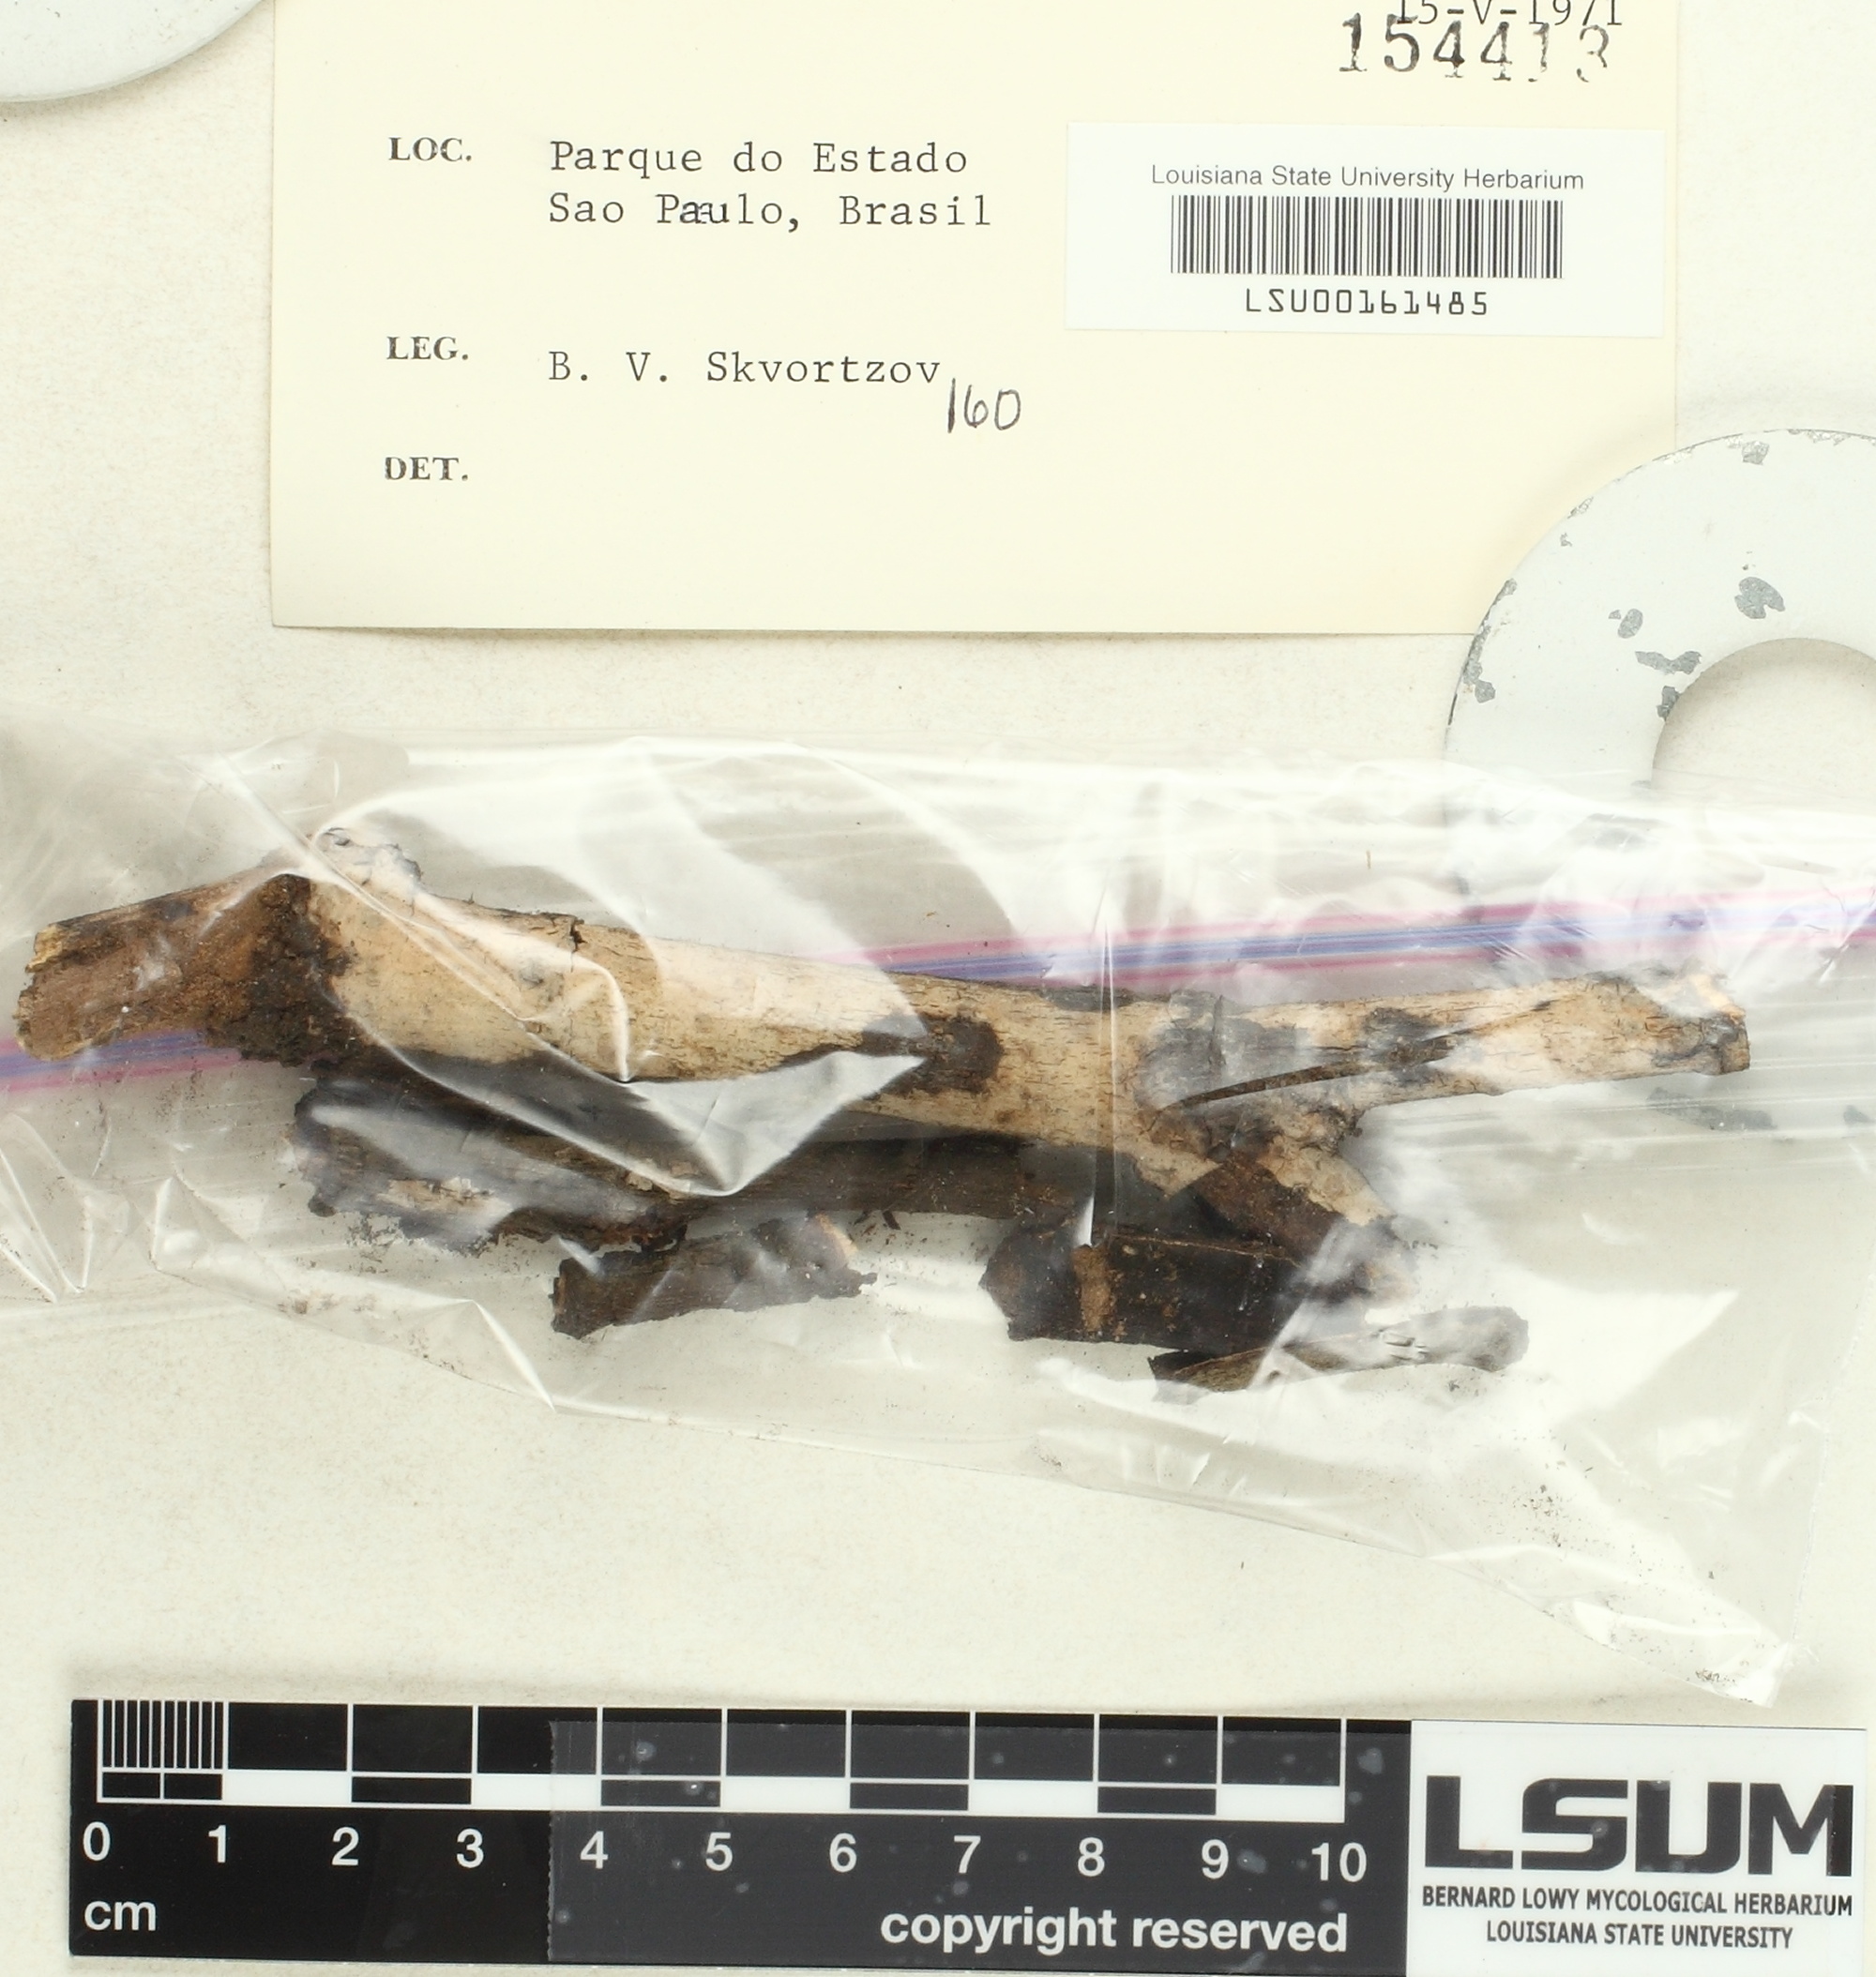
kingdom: Fungi
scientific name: Fungi
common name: Fungi
